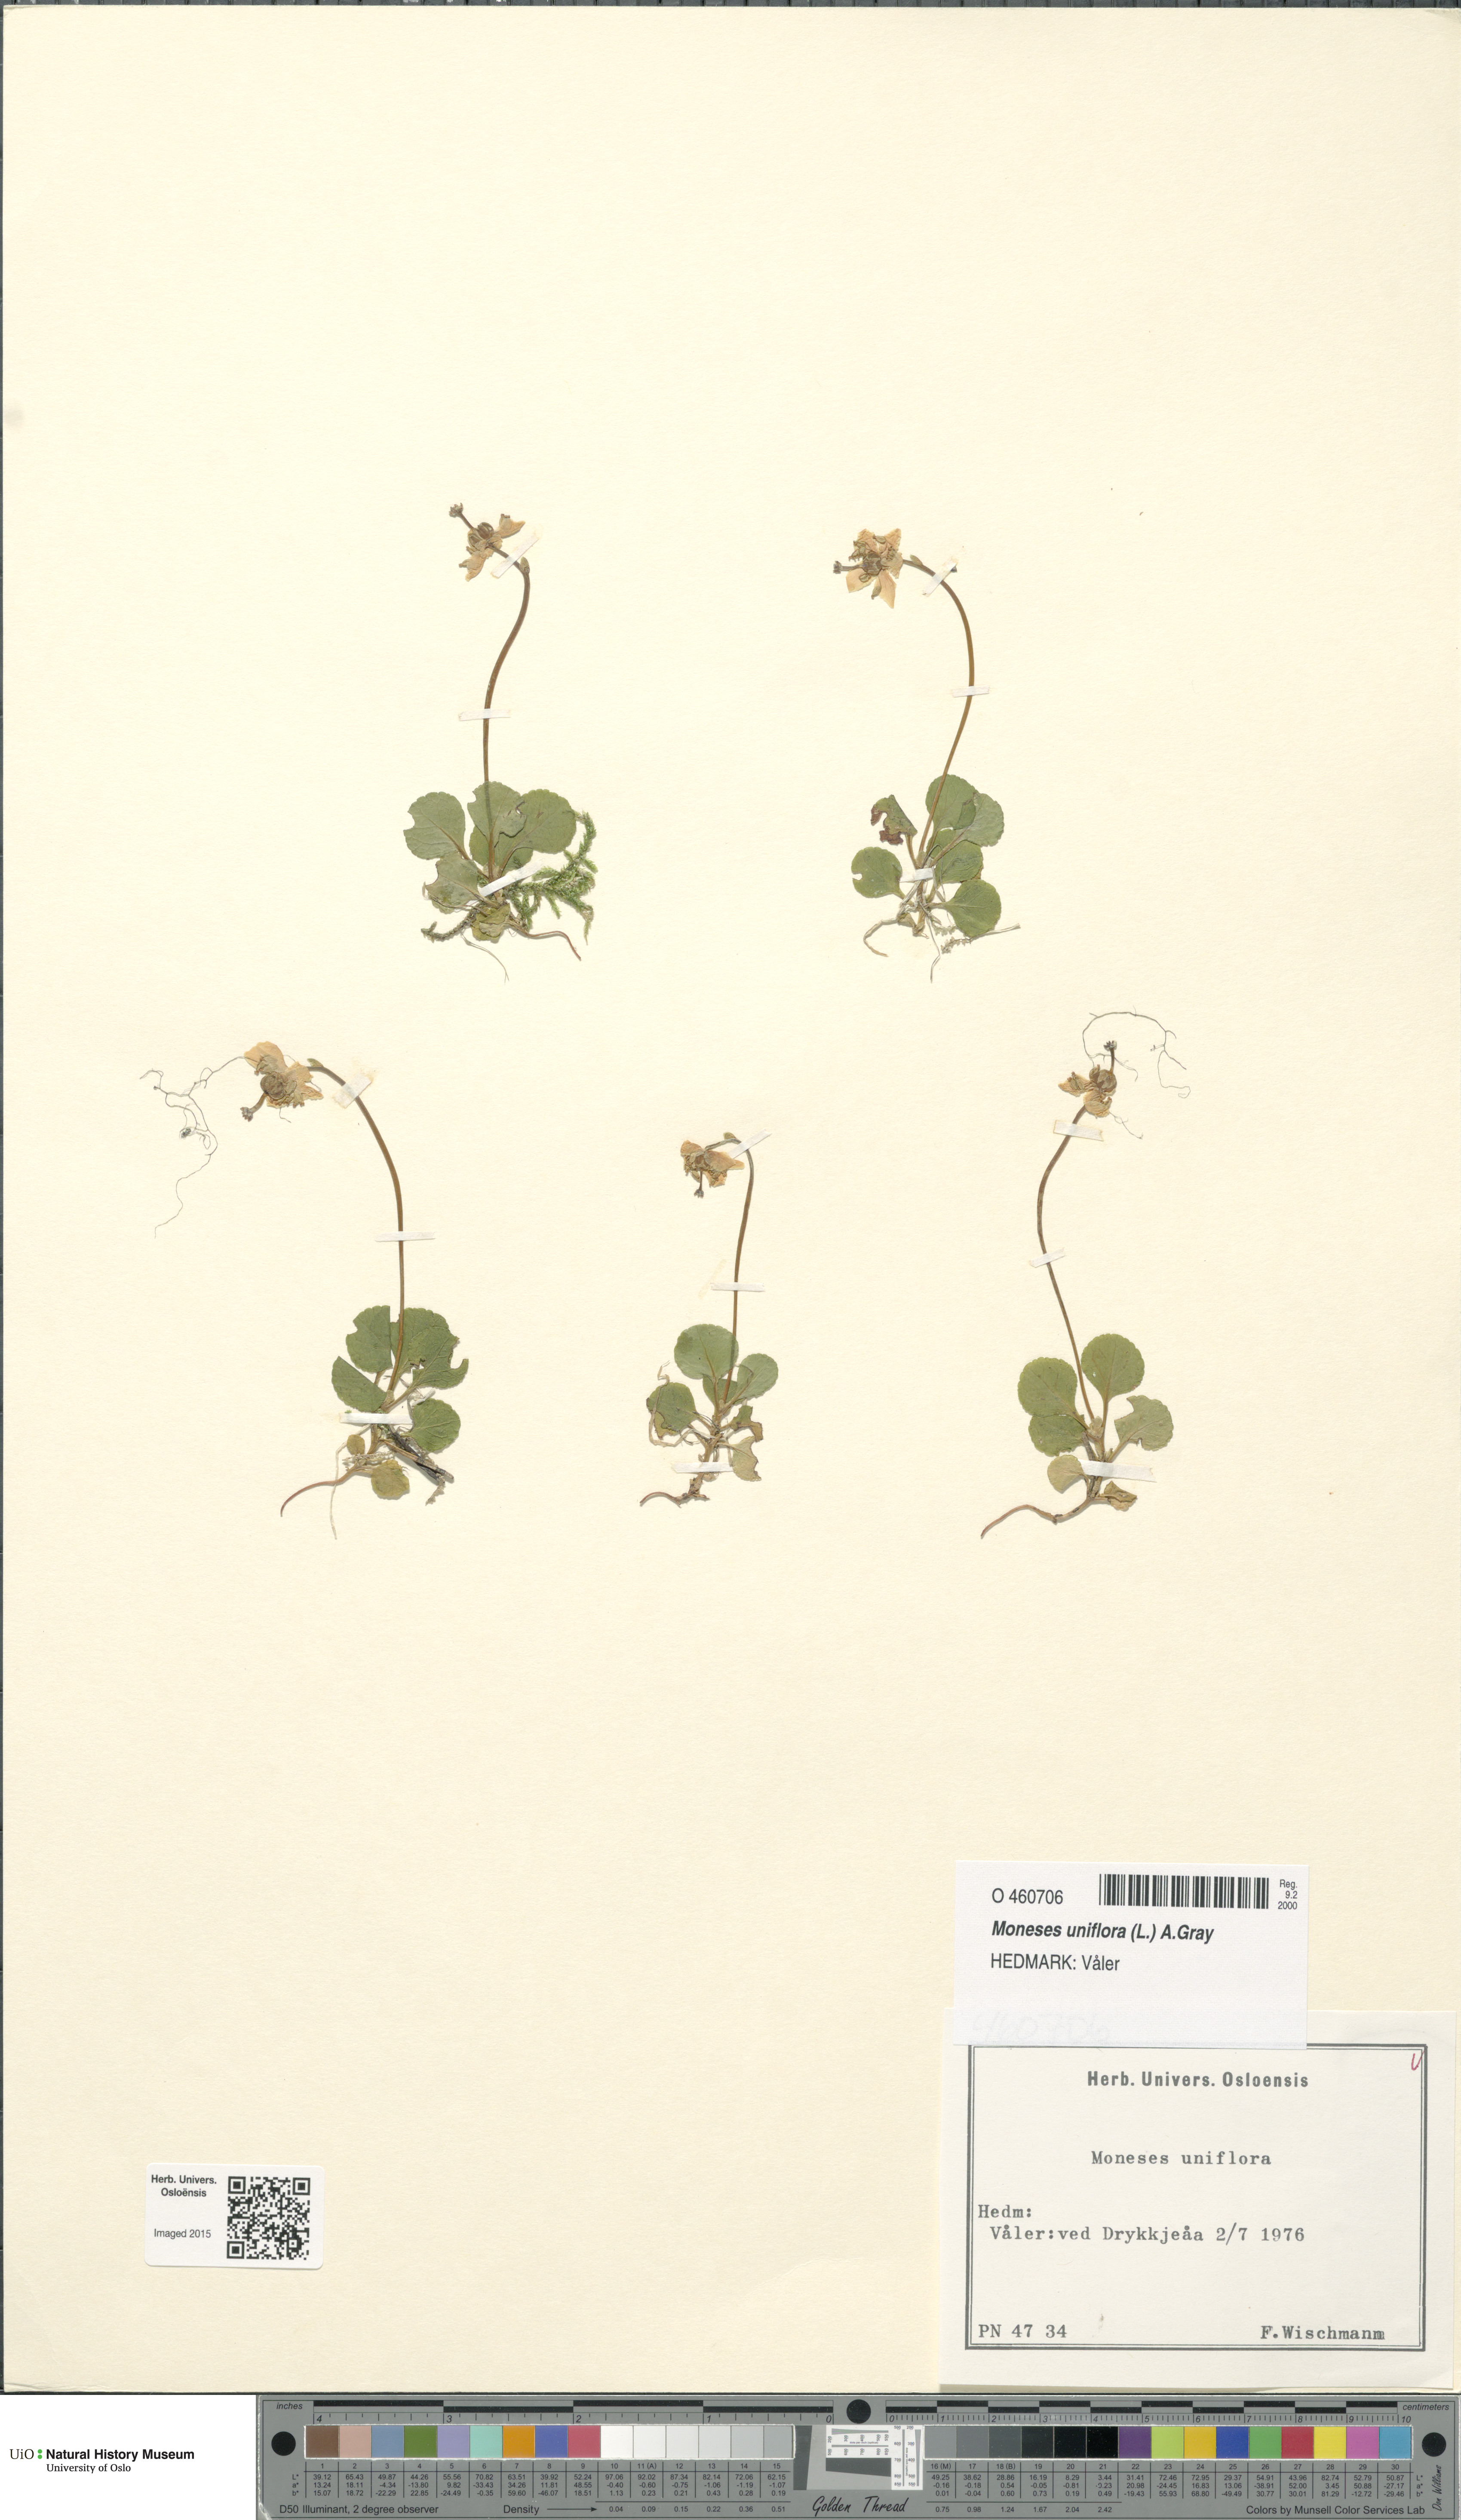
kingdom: Plantae
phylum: Tracheophyta
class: Magnoliopsida
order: Ericales
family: Ericaceae
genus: Moneses
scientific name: Moneses uniflora
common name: One-flowered wintergreen
